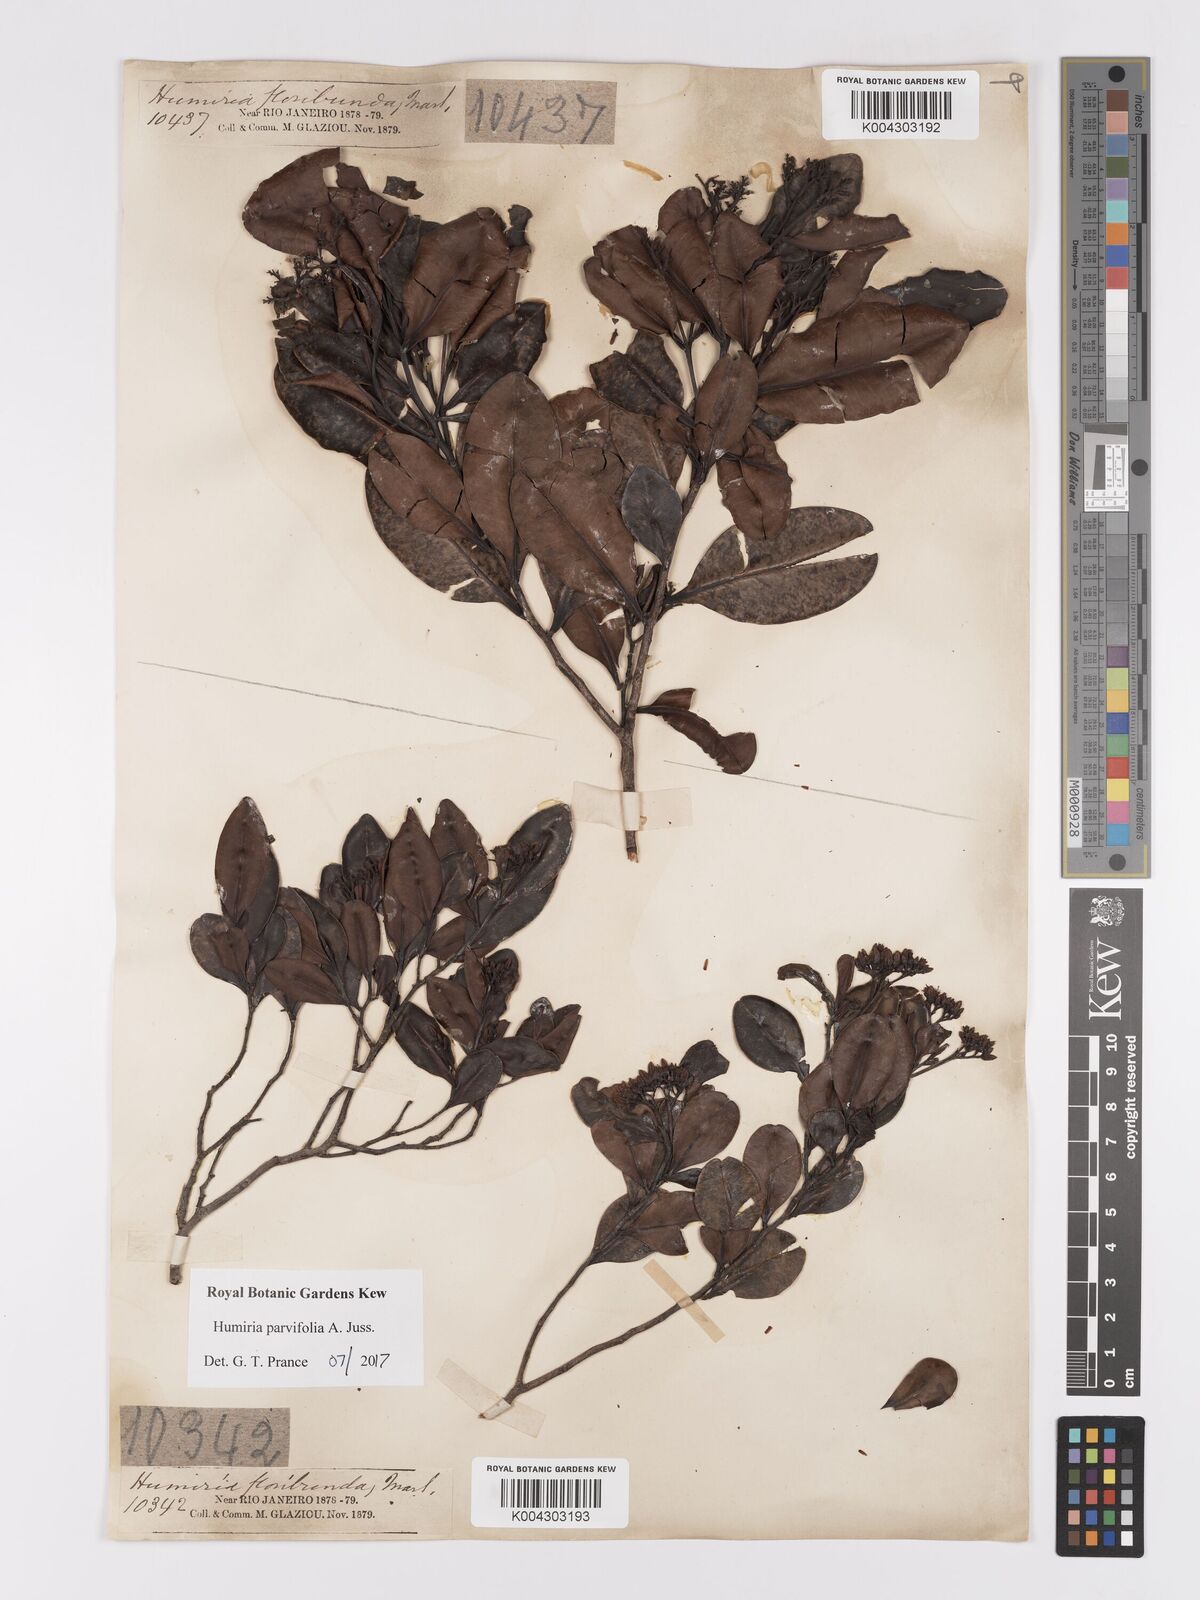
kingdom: Plantae
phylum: Tracheophyta
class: Magnoliopsida
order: Malpighiales
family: Humiriaceae
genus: Humiria
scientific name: Humiria parvifolia
